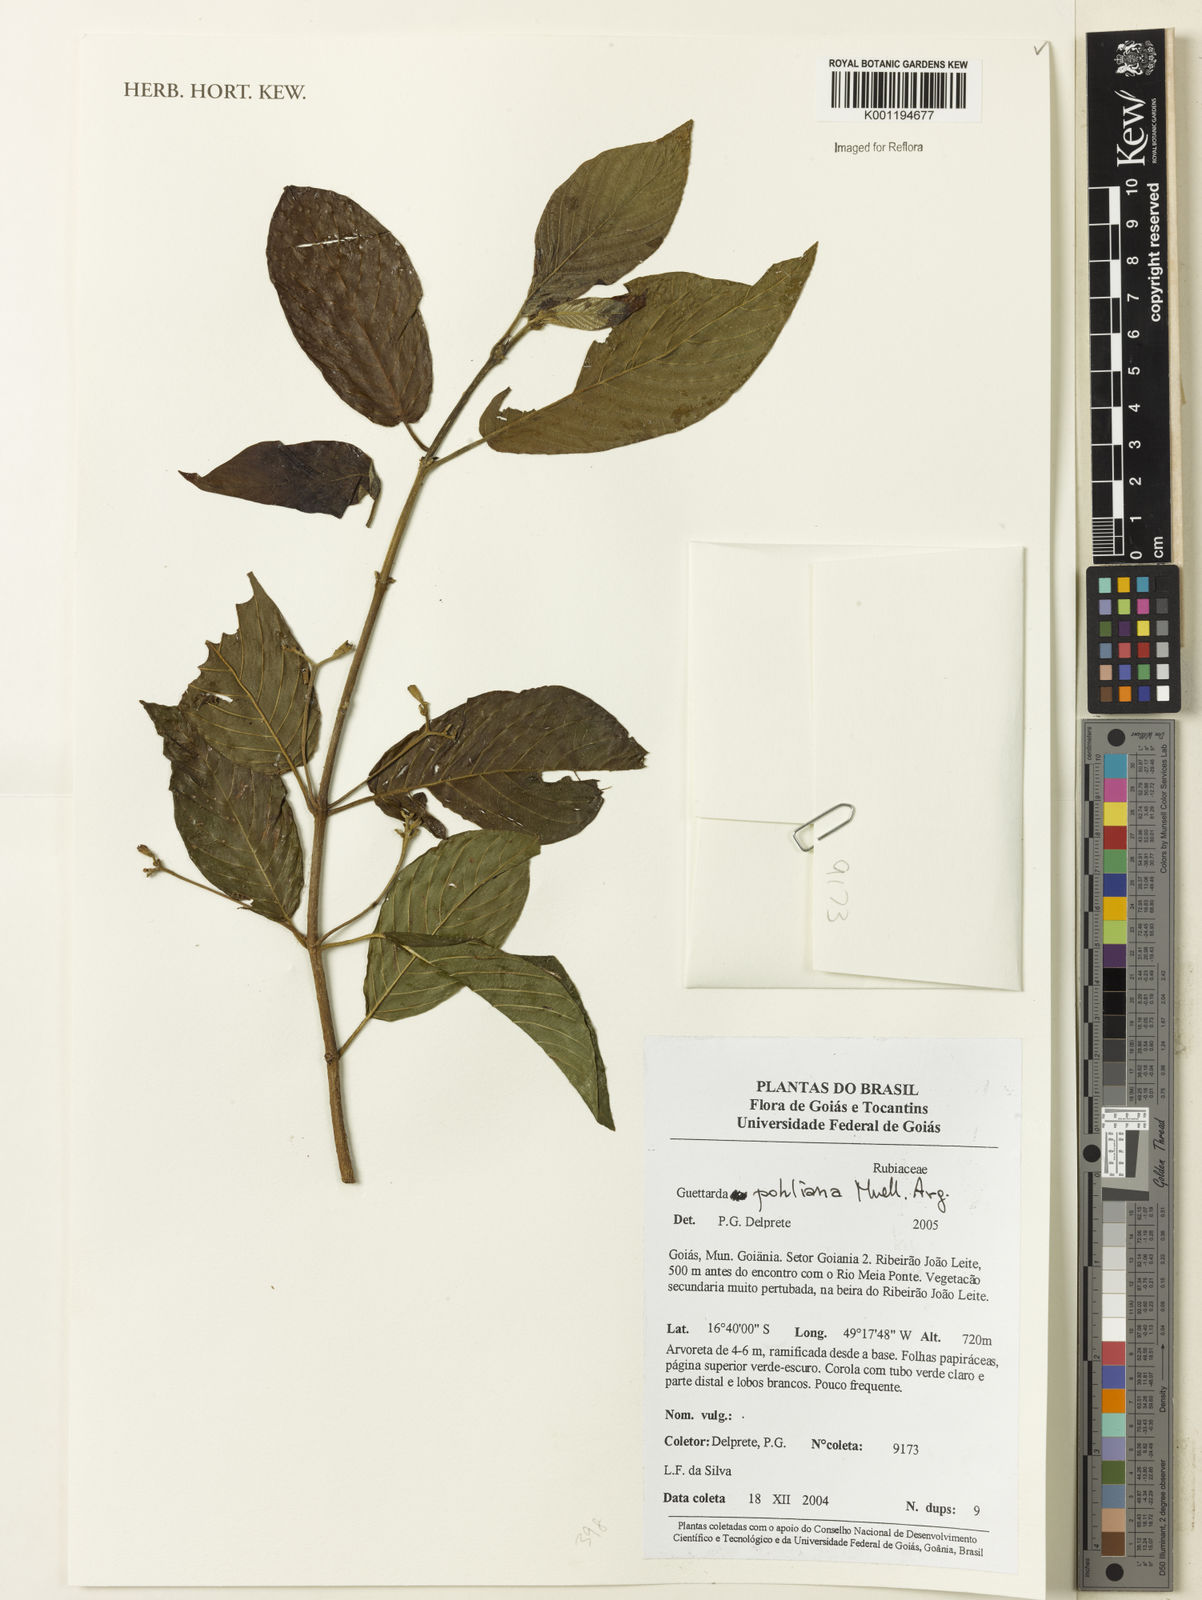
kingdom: Plantae
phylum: Tracheophyta
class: Magnoliopsida
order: Gentianales
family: Rubiaceae
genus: Guettarda
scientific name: Guettarda
